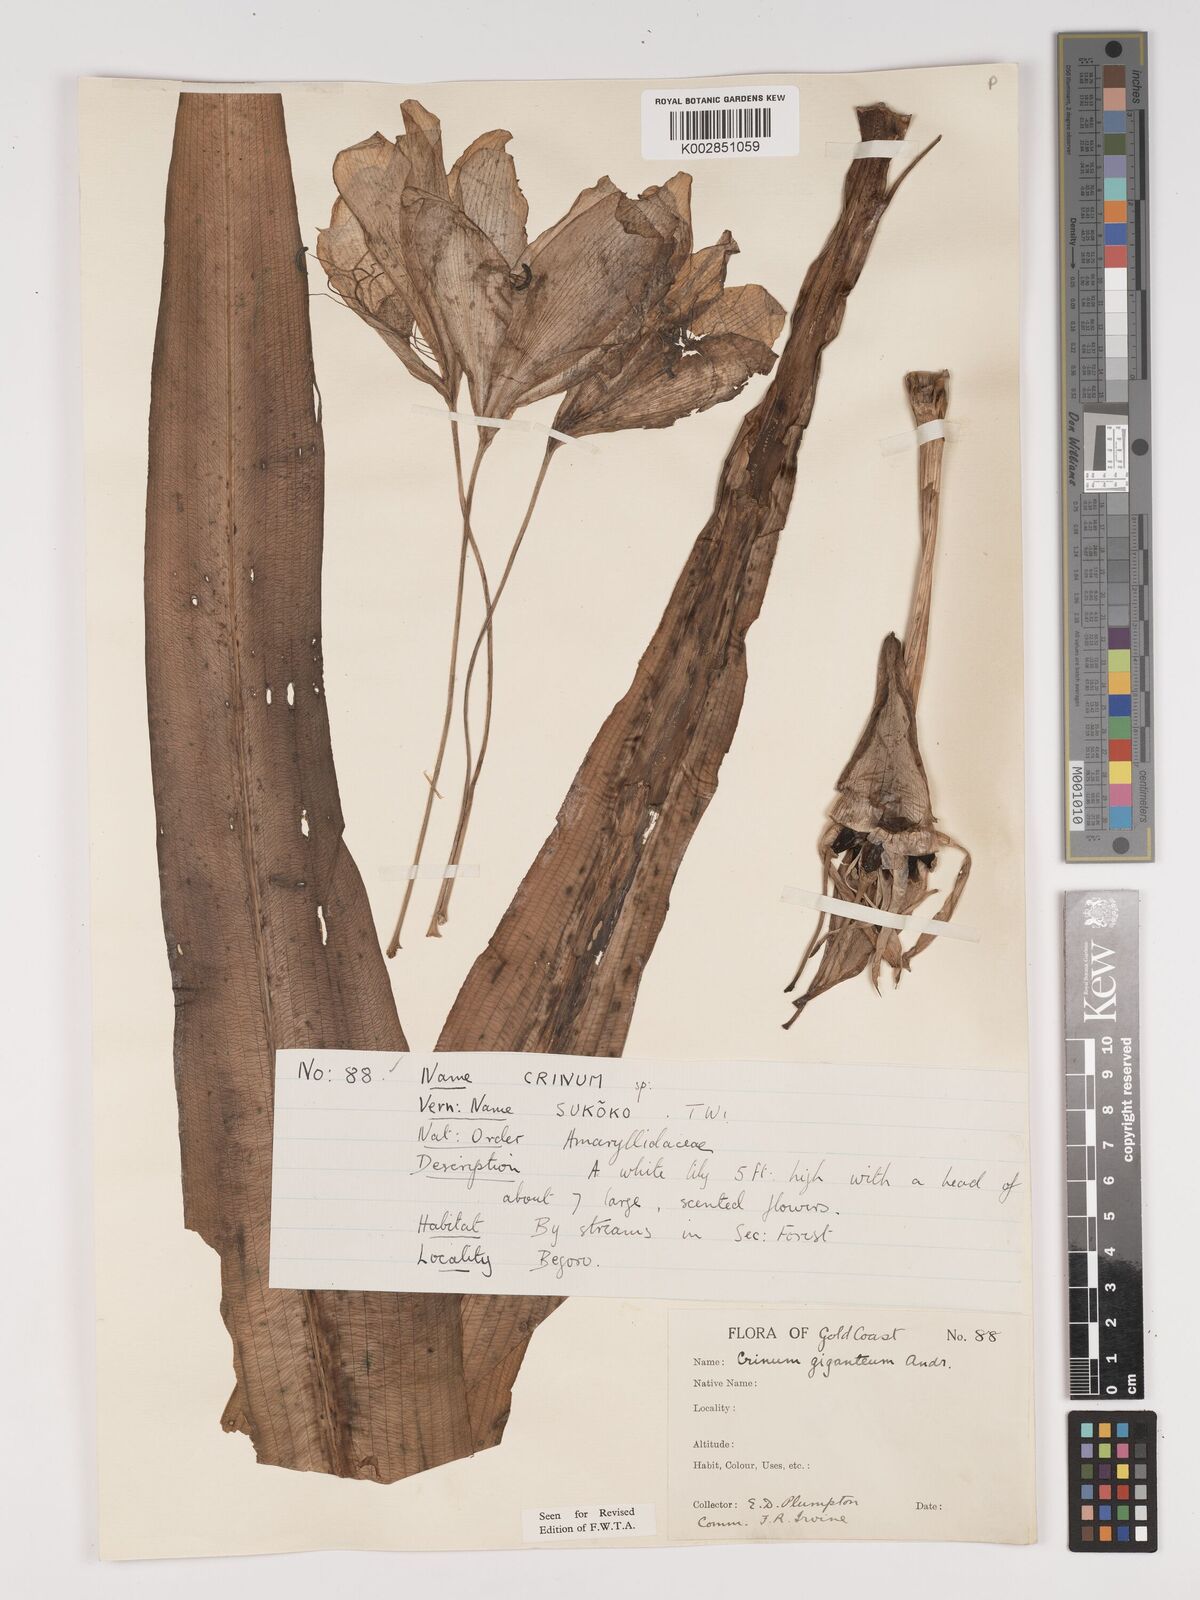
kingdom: Plantae
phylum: Tracheophyta
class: Liliopsida
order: Asparagales
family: Amaryllidaceae
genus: Crinum
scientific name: Crinum jagus
